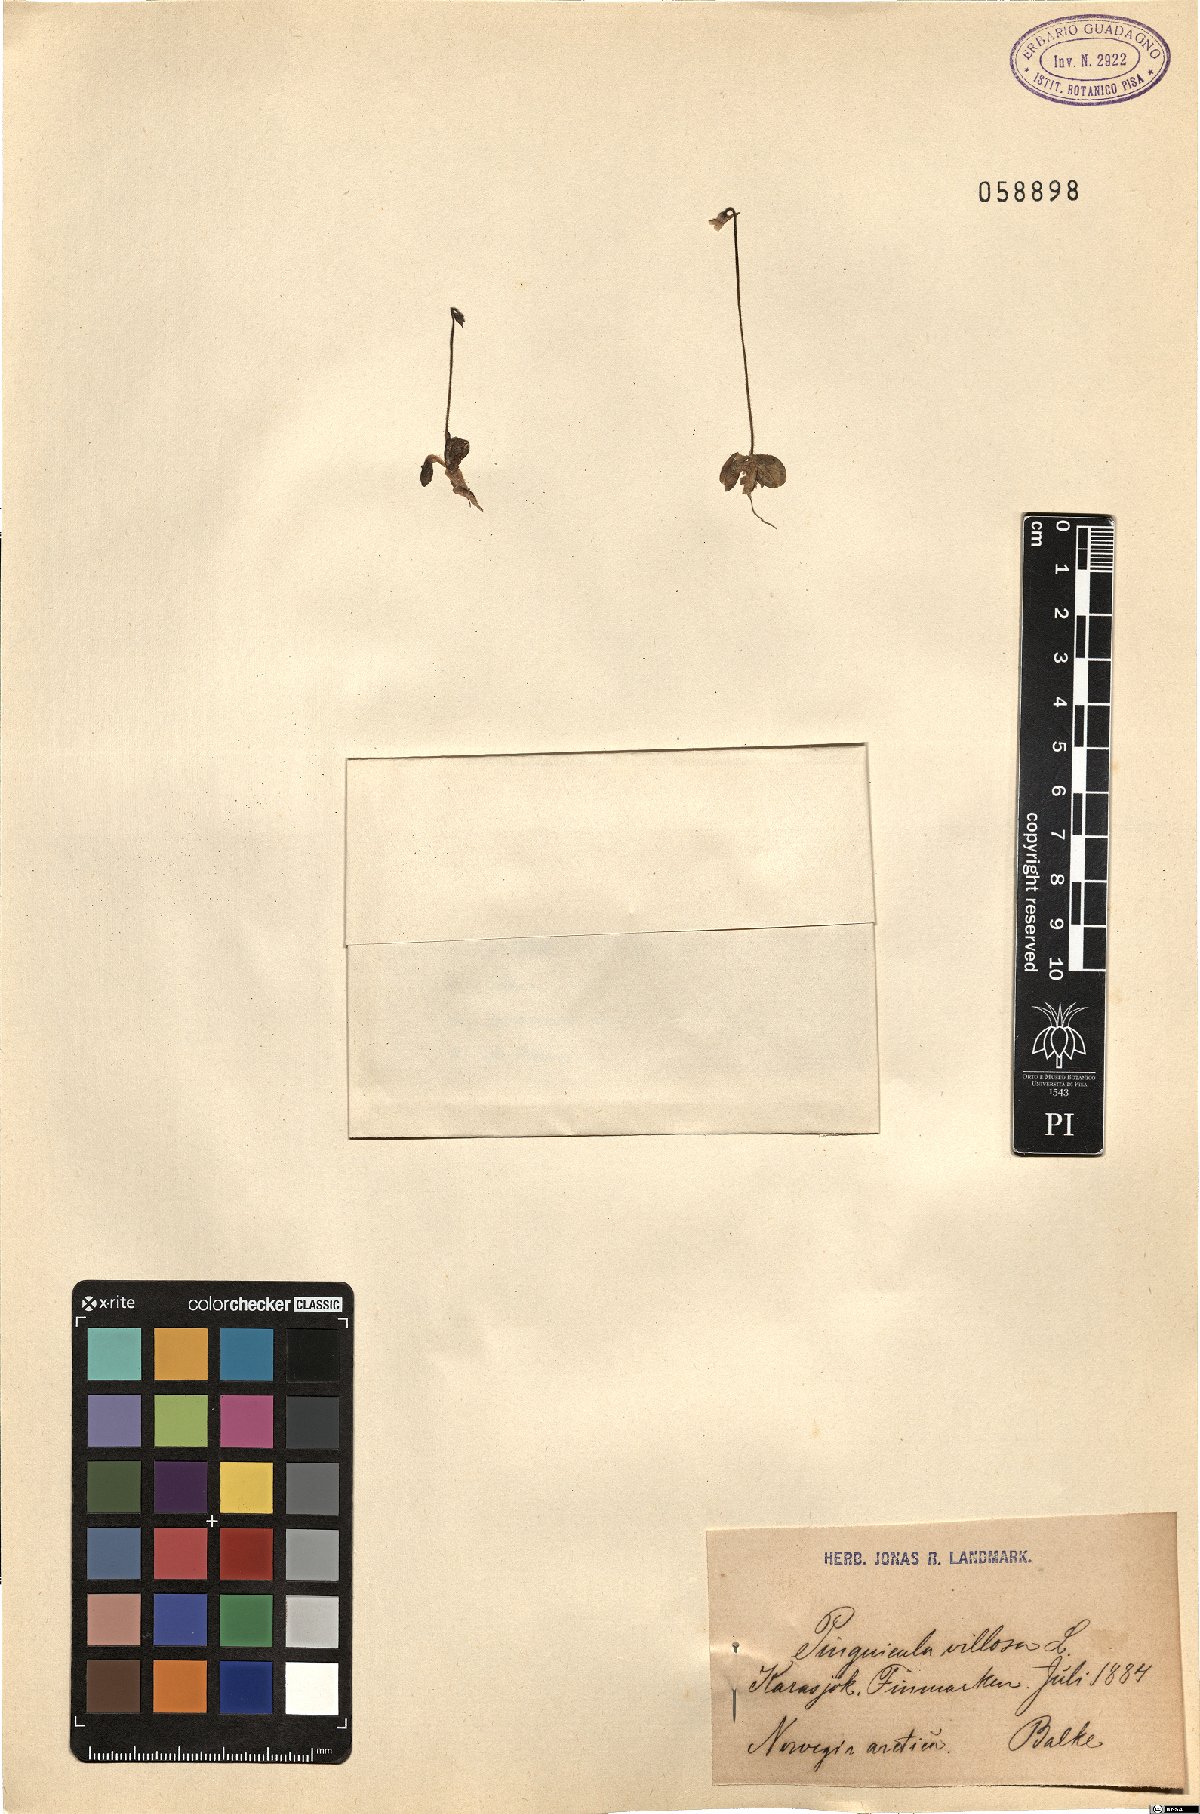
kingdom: Plantae
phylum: Tracheophyta
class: Magnoliopsida
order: Lamiales
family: Lentibulariaceae
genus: Pinguicula
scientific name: Pinguicula villosa
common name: Hairy butterwort
